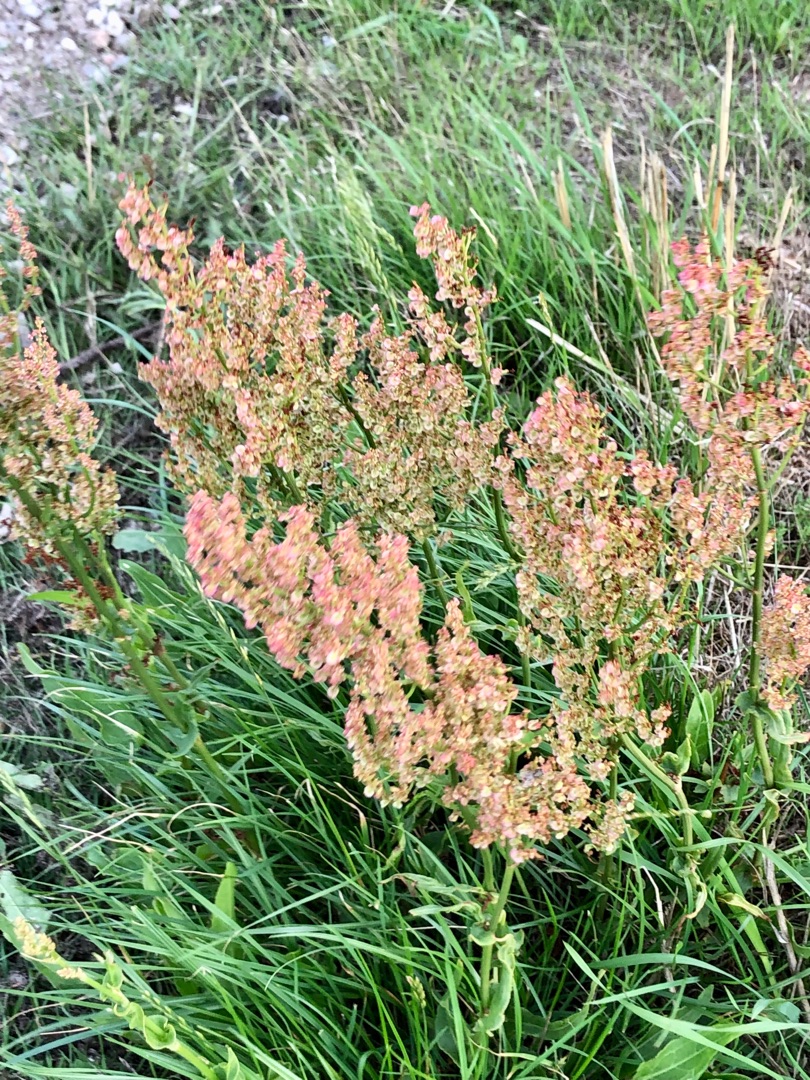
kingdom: Plantae
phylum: Tracheophyta
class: Magnoliopsida
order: Caryophyllales
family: Polygonaceae
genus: Rumex
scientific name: Rumex thyrsiflorus
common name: Dusk-syre
